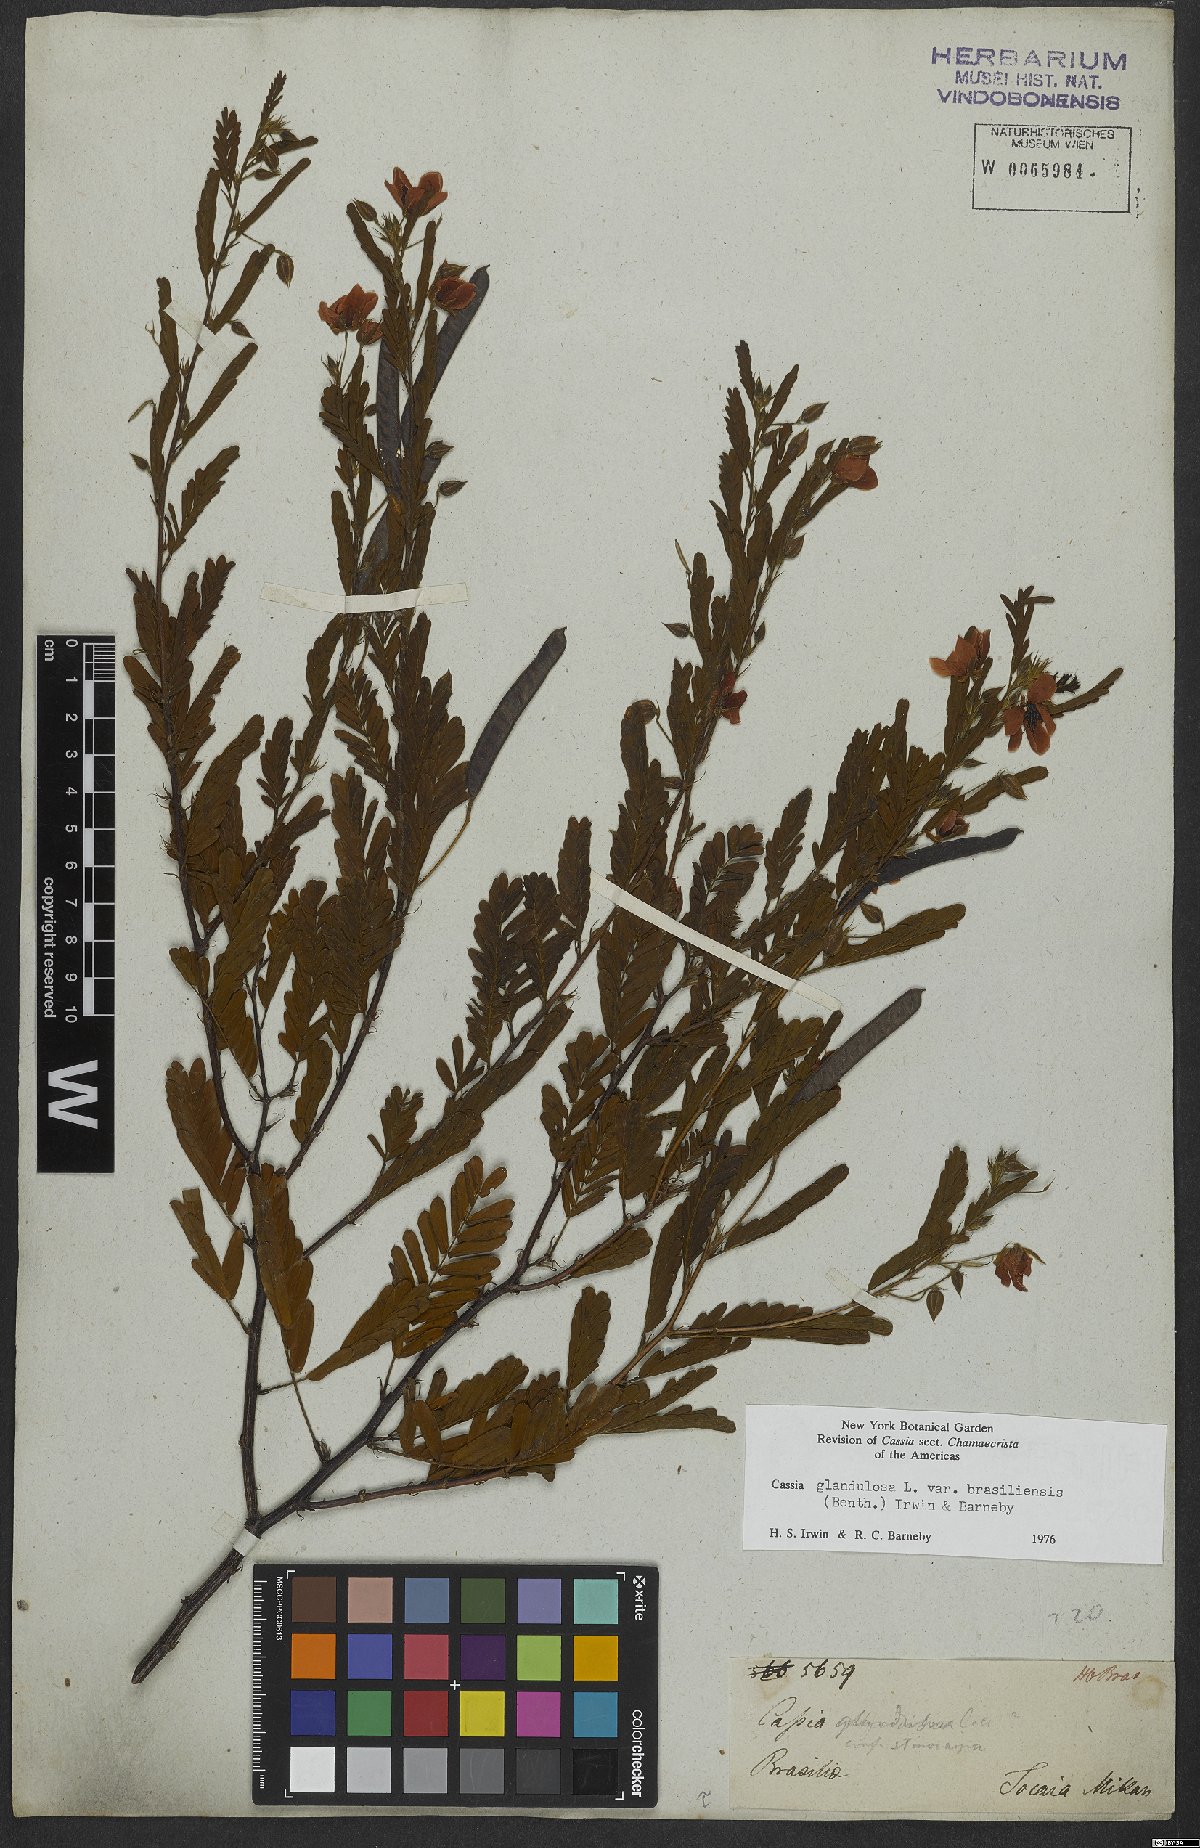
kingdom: Plantae
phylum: Tracheophyta
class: Magnoliopsida
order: Fabales
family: Fabaceae
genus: Chamaecrista
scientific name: Chamaecrista glandulosa
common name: Wild peas
